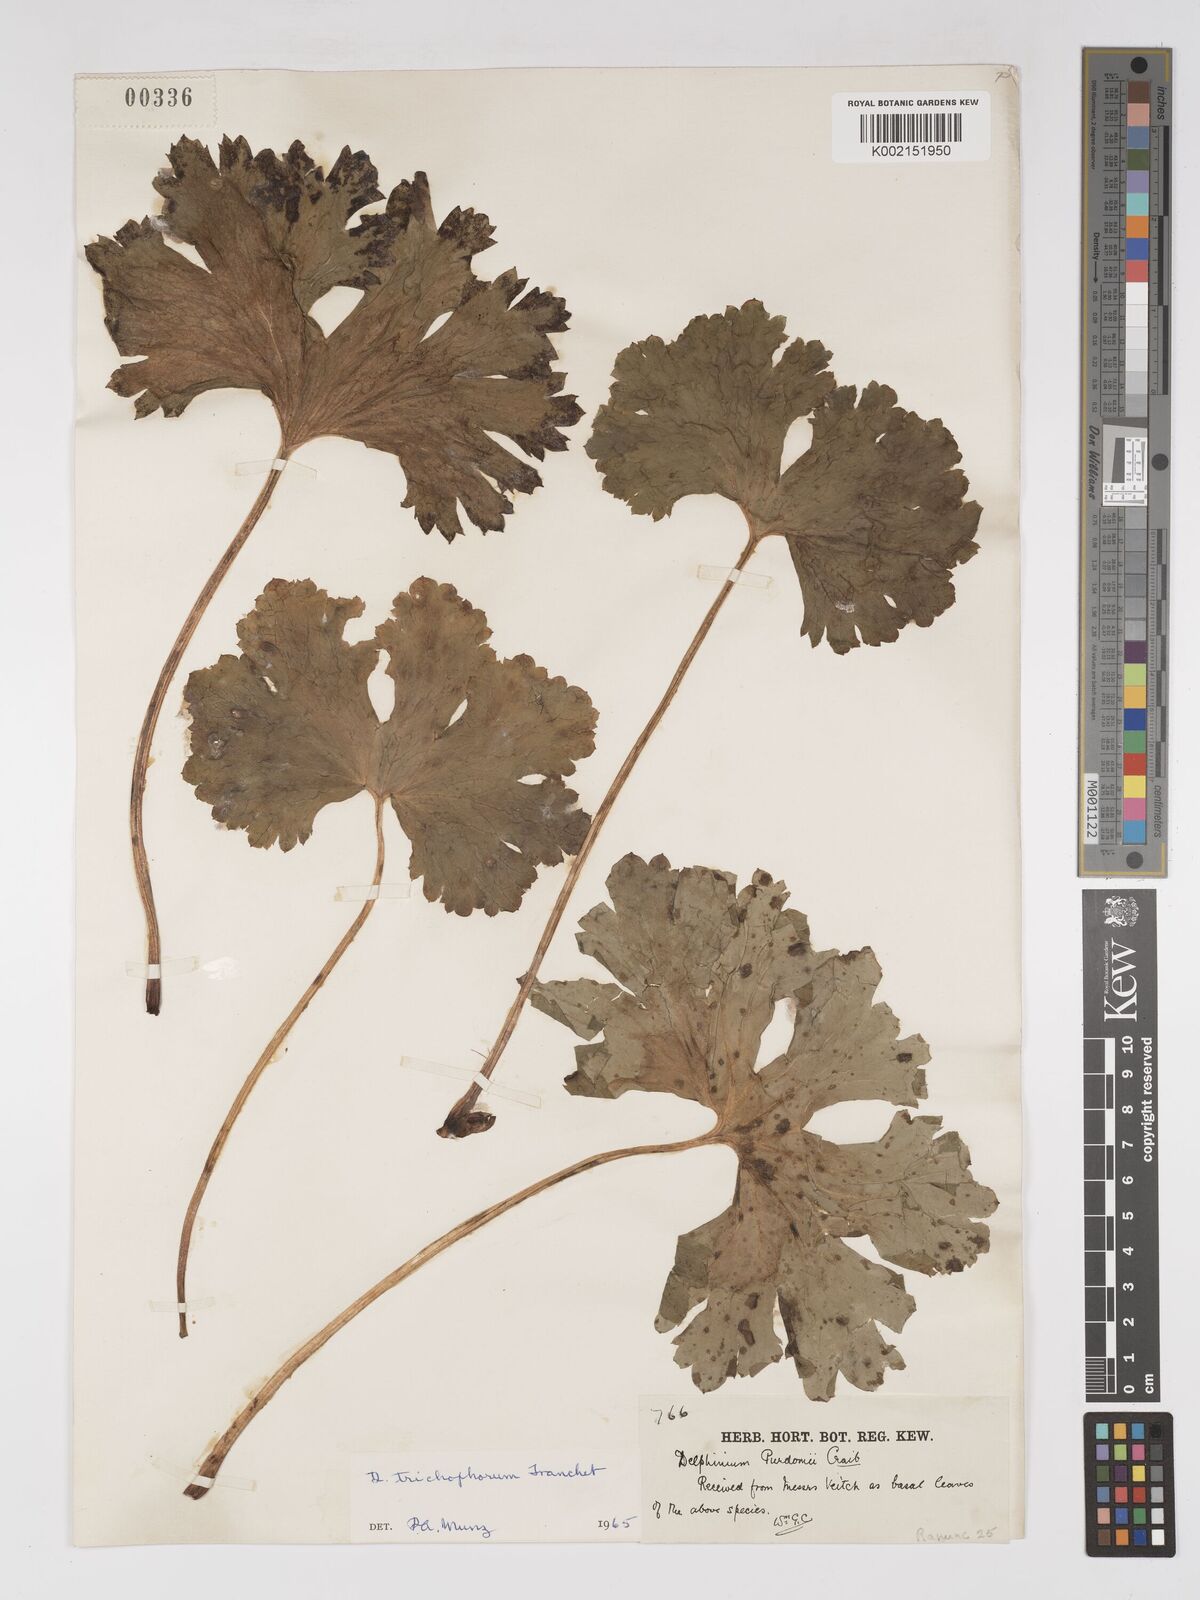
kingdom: Plantae
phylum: Tracheophyta
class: Magnoliopsida
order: Ranunculales
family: Ranunculaceae
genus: Delphinium
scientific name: Delphinium trichophorum
